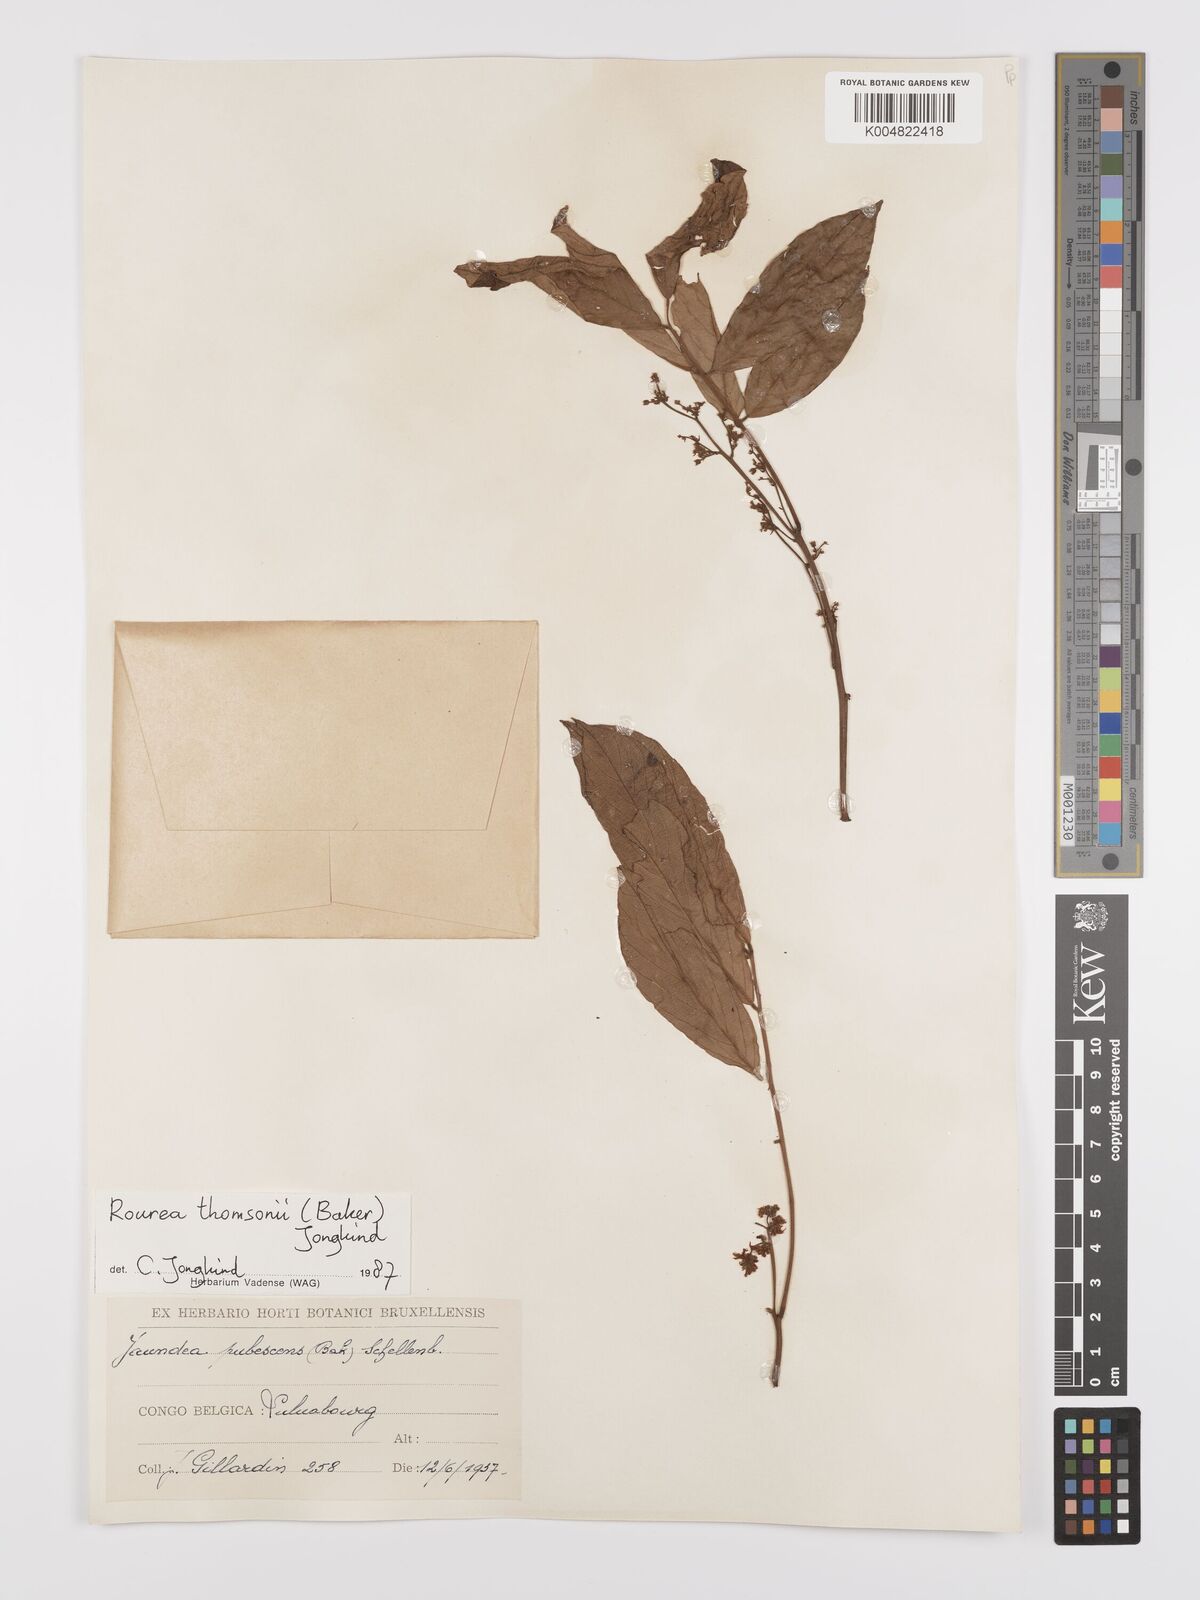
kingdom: Plantae
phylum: Tracheophyta
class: Magnoliopsida
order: Oxalidales
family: Connaraceae
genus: Rourea
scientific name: Rourea pubescens
